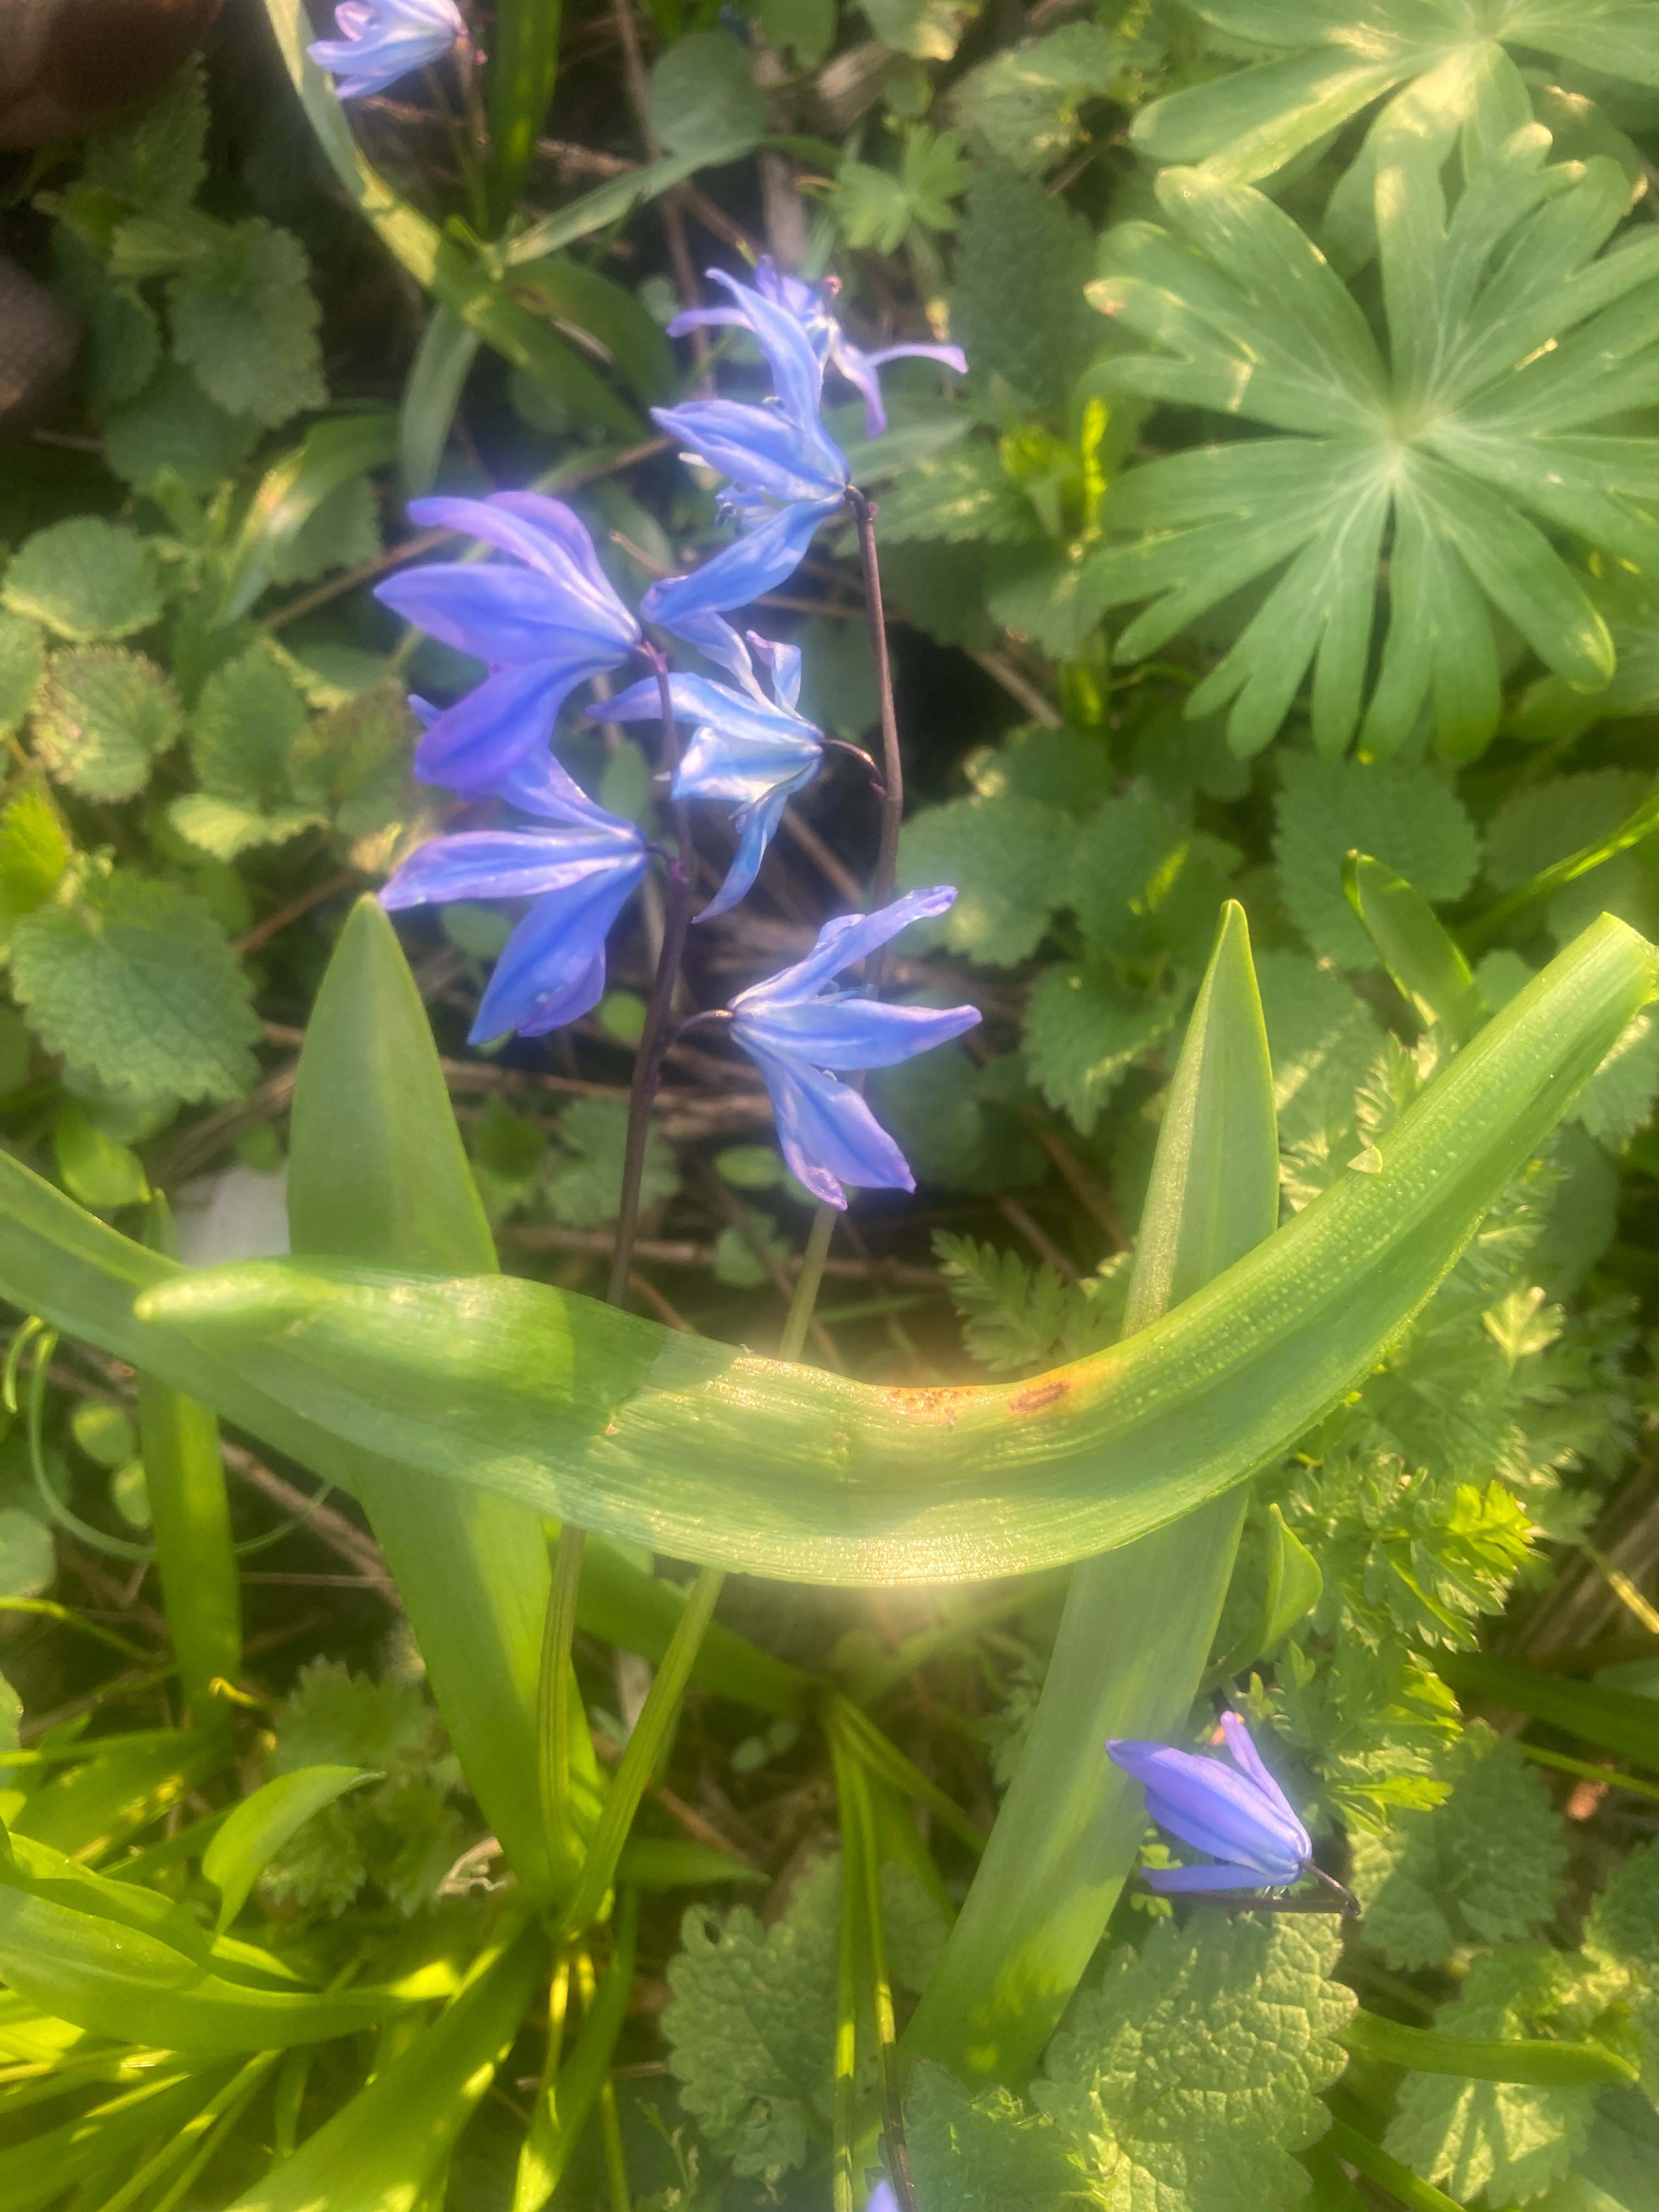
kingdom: Fungi
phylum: Basidiomycota
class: Pucciniomycetes
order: Pucciniales
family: Pucciniaceae
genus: Puccinia
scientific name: Puccinia scillae
